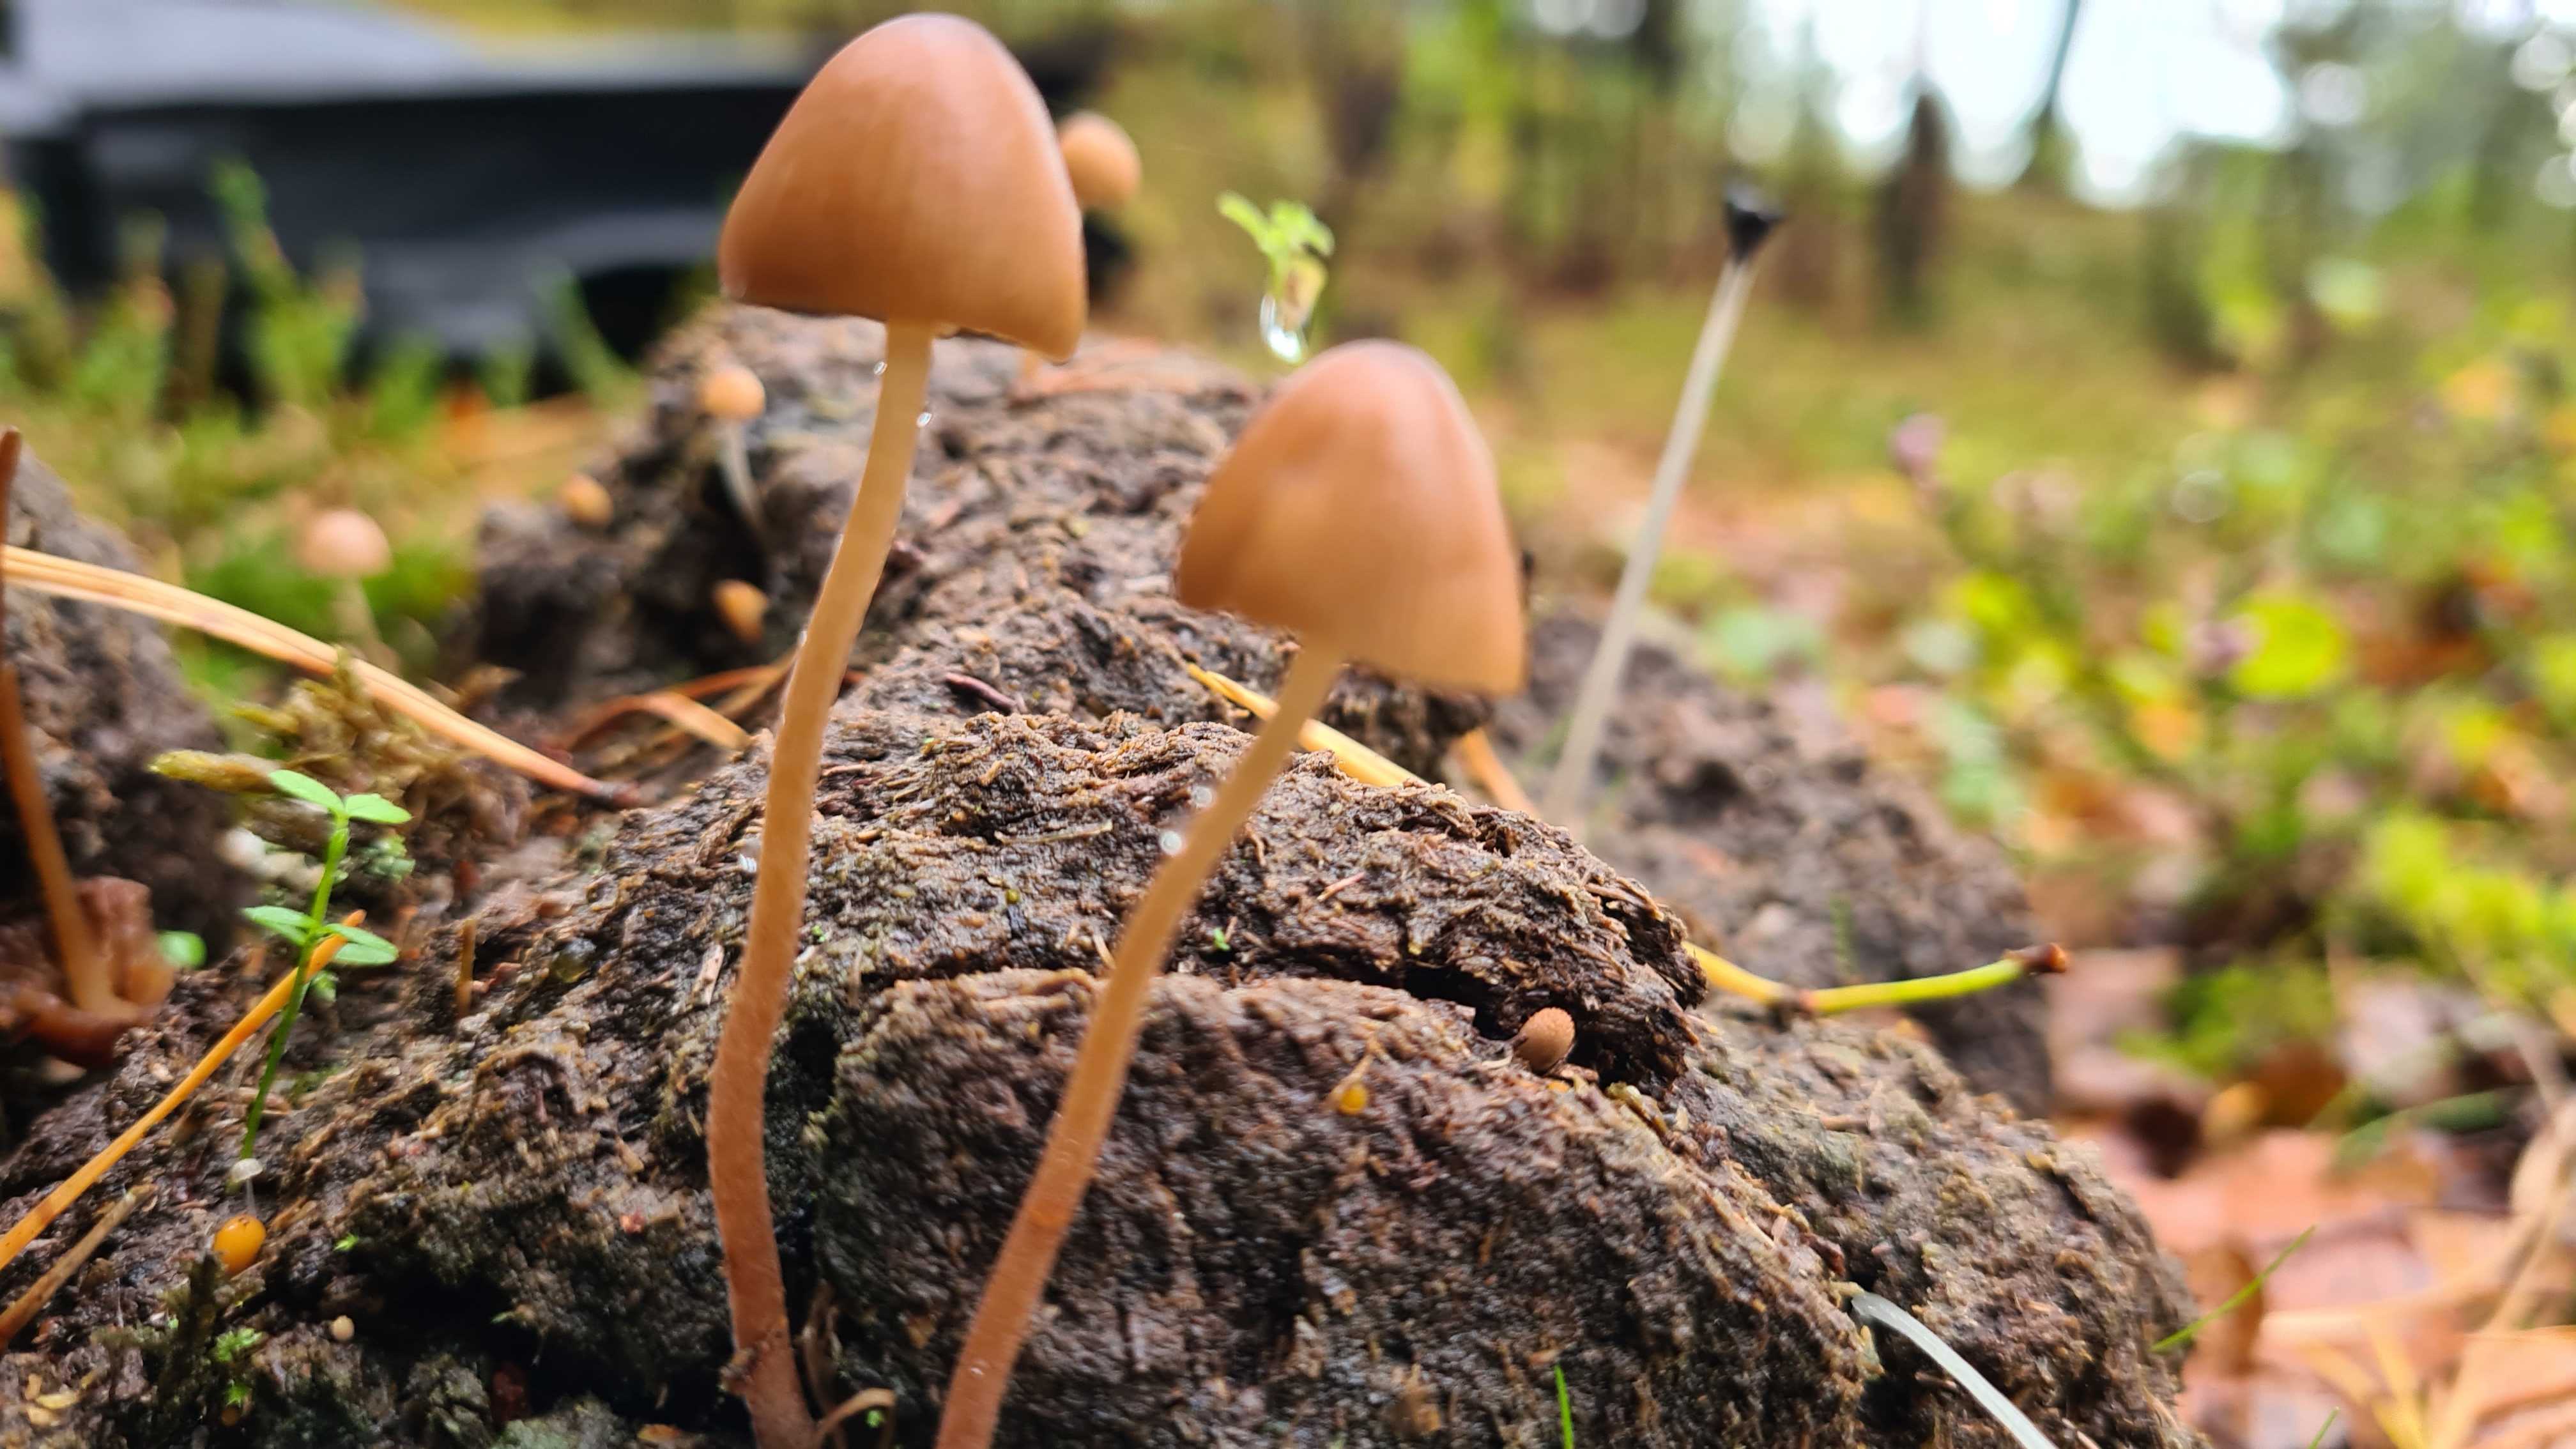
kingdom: Fungi
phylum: Basidiomycota
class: Agaricomycetes
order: Agaricales
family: Bolbitiaceae
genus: Conocybe
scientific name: Conocybe
